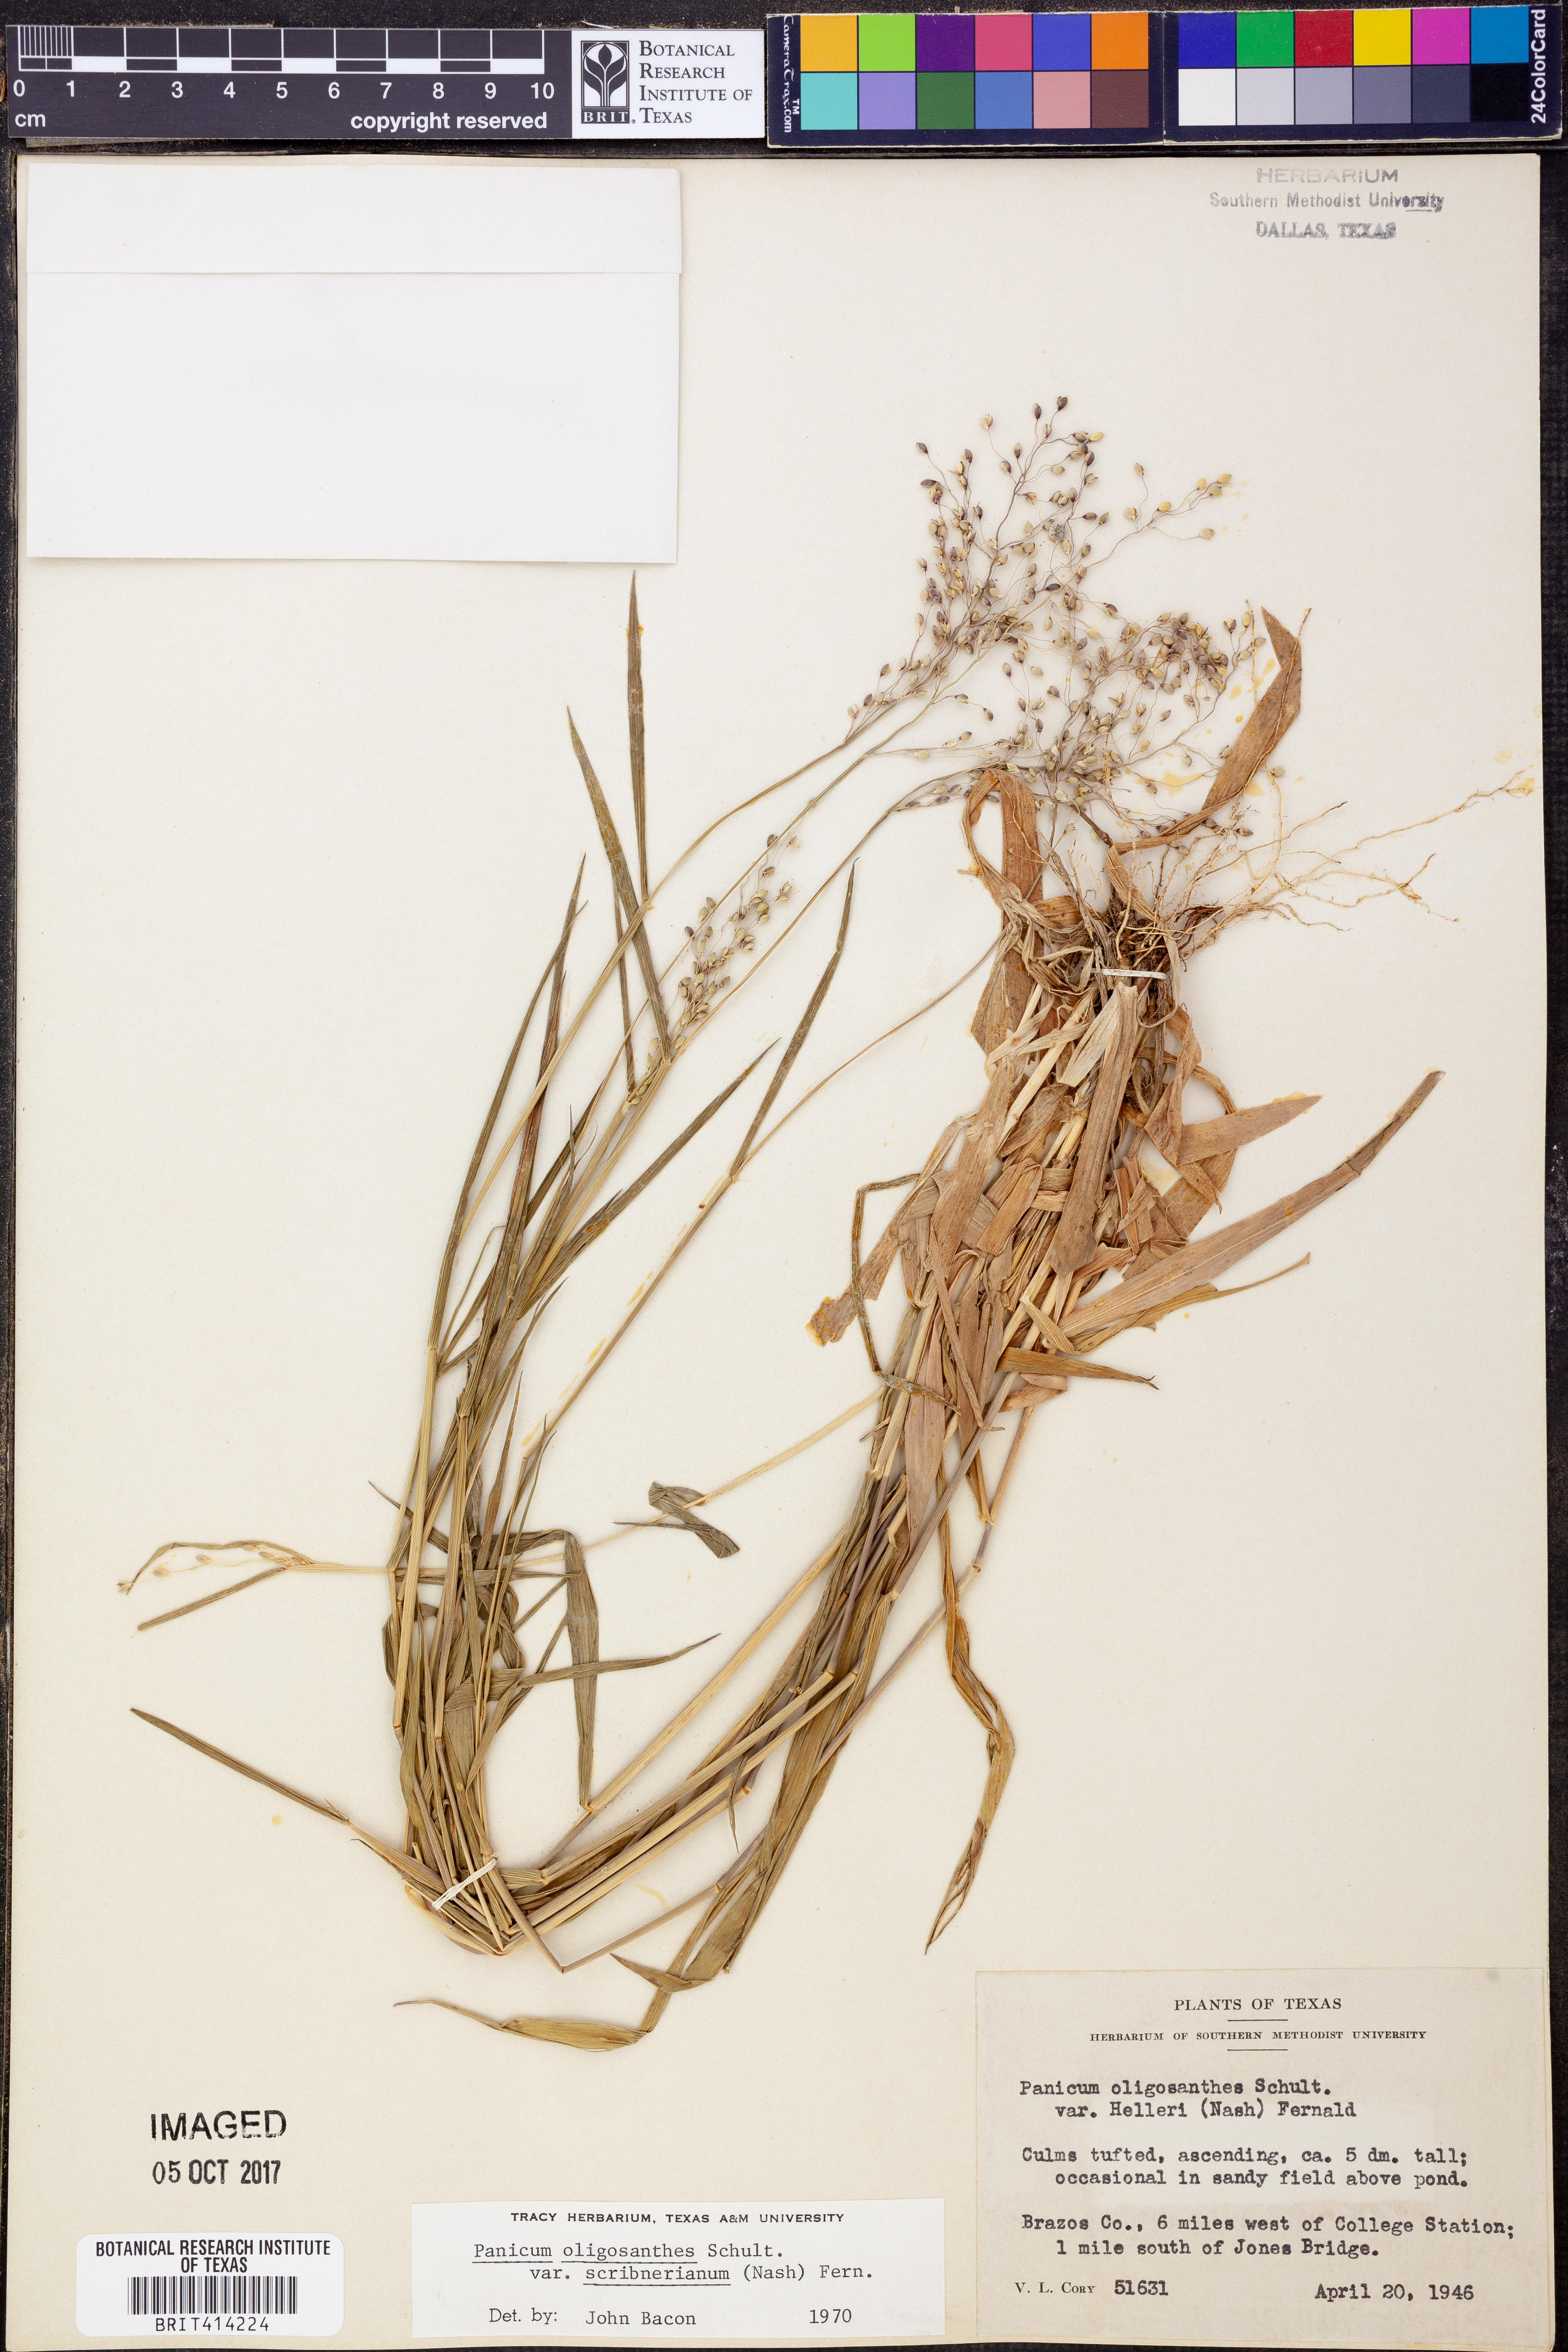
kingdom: Plantae
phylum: Tracheophyta
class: Liliopsida
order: Poales
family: Poaceae
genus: Dichanthelium
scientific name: Dichanthelium scribnerianum
